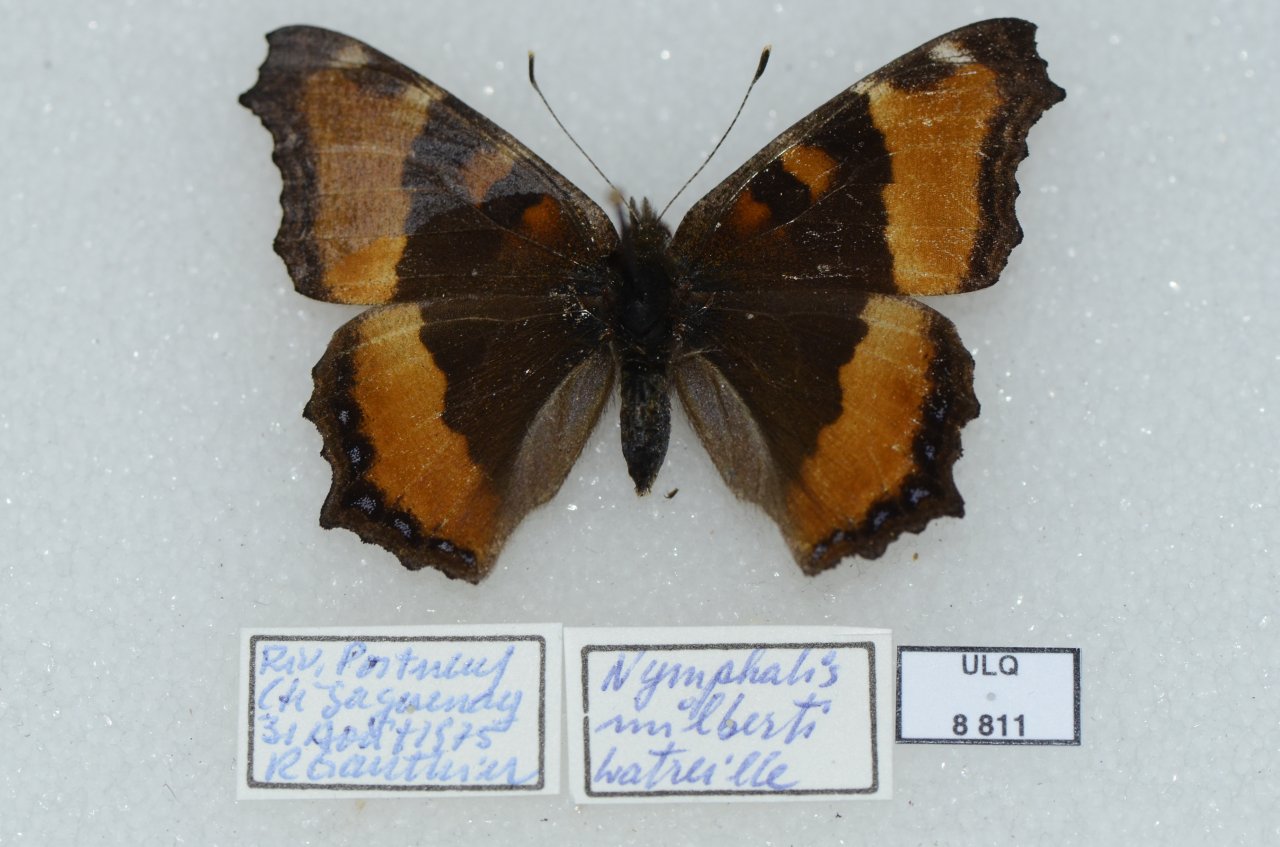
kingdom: Animalia
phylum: Arthropoda
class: Insecta
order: Lepidoptera
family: Nymphalidae
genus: Aglais
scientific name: Aglais milberti
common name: Milbert's Tortoiseshell
